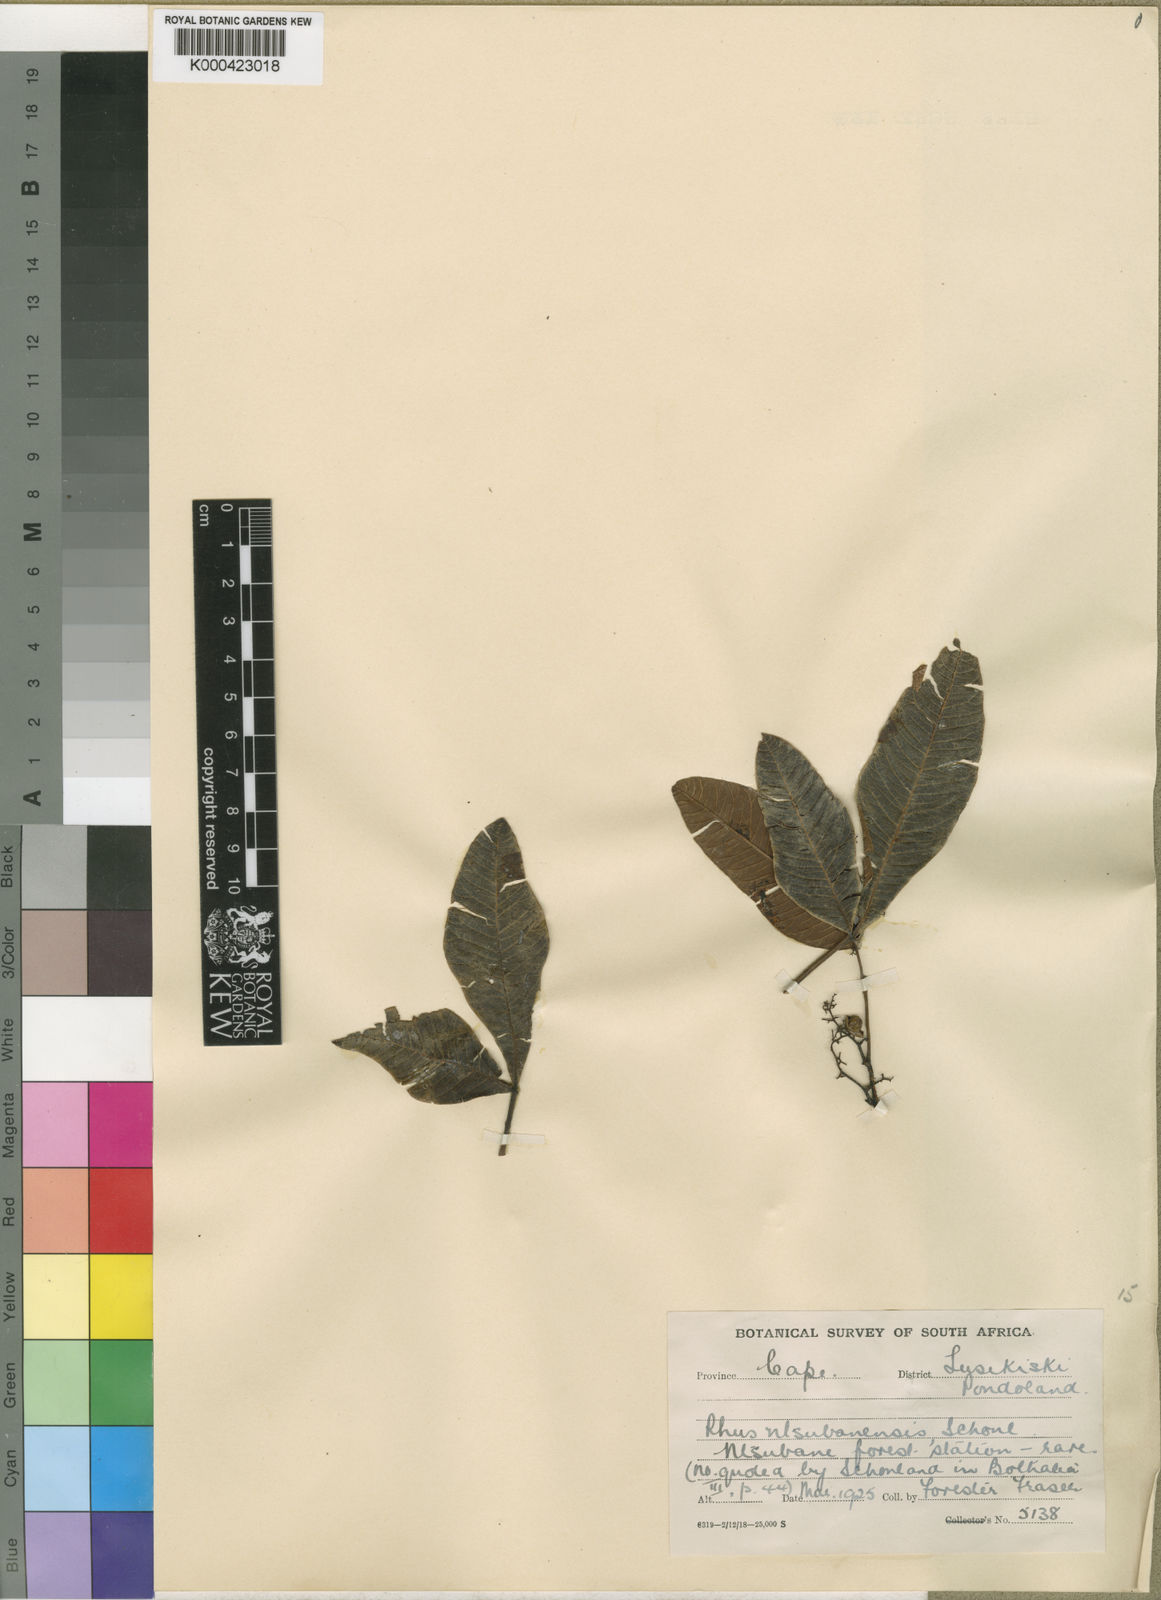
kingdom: Plantae
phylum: Tracheophyta
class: Magnoliopsida
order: Sapindales
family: Anacardiaceae
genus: Rhus
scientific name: Rhus
